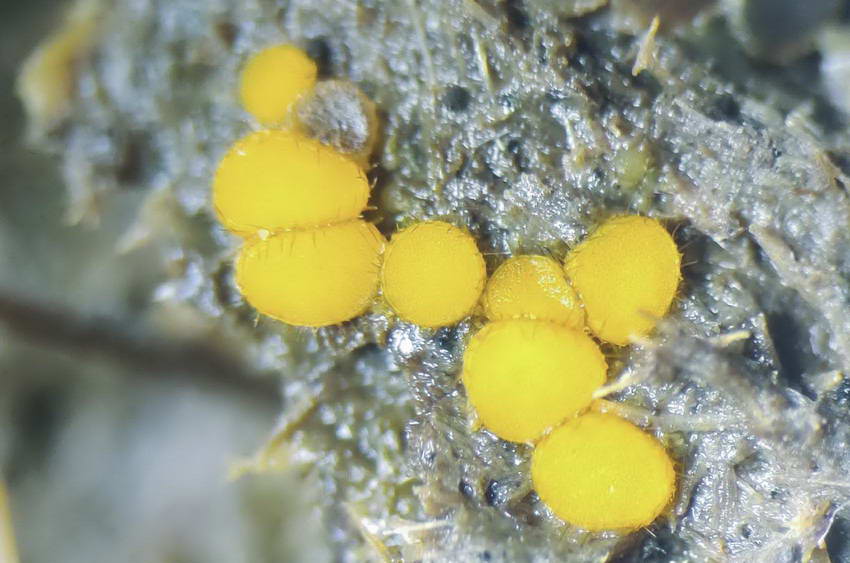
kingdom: Fungi
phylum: Ascomycota
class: Pezizomycetes
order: Pezizales
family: Pyronemataceae
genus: Cheilymenia
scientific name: Cheilymenia fimicola
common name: møg-hårbæger
